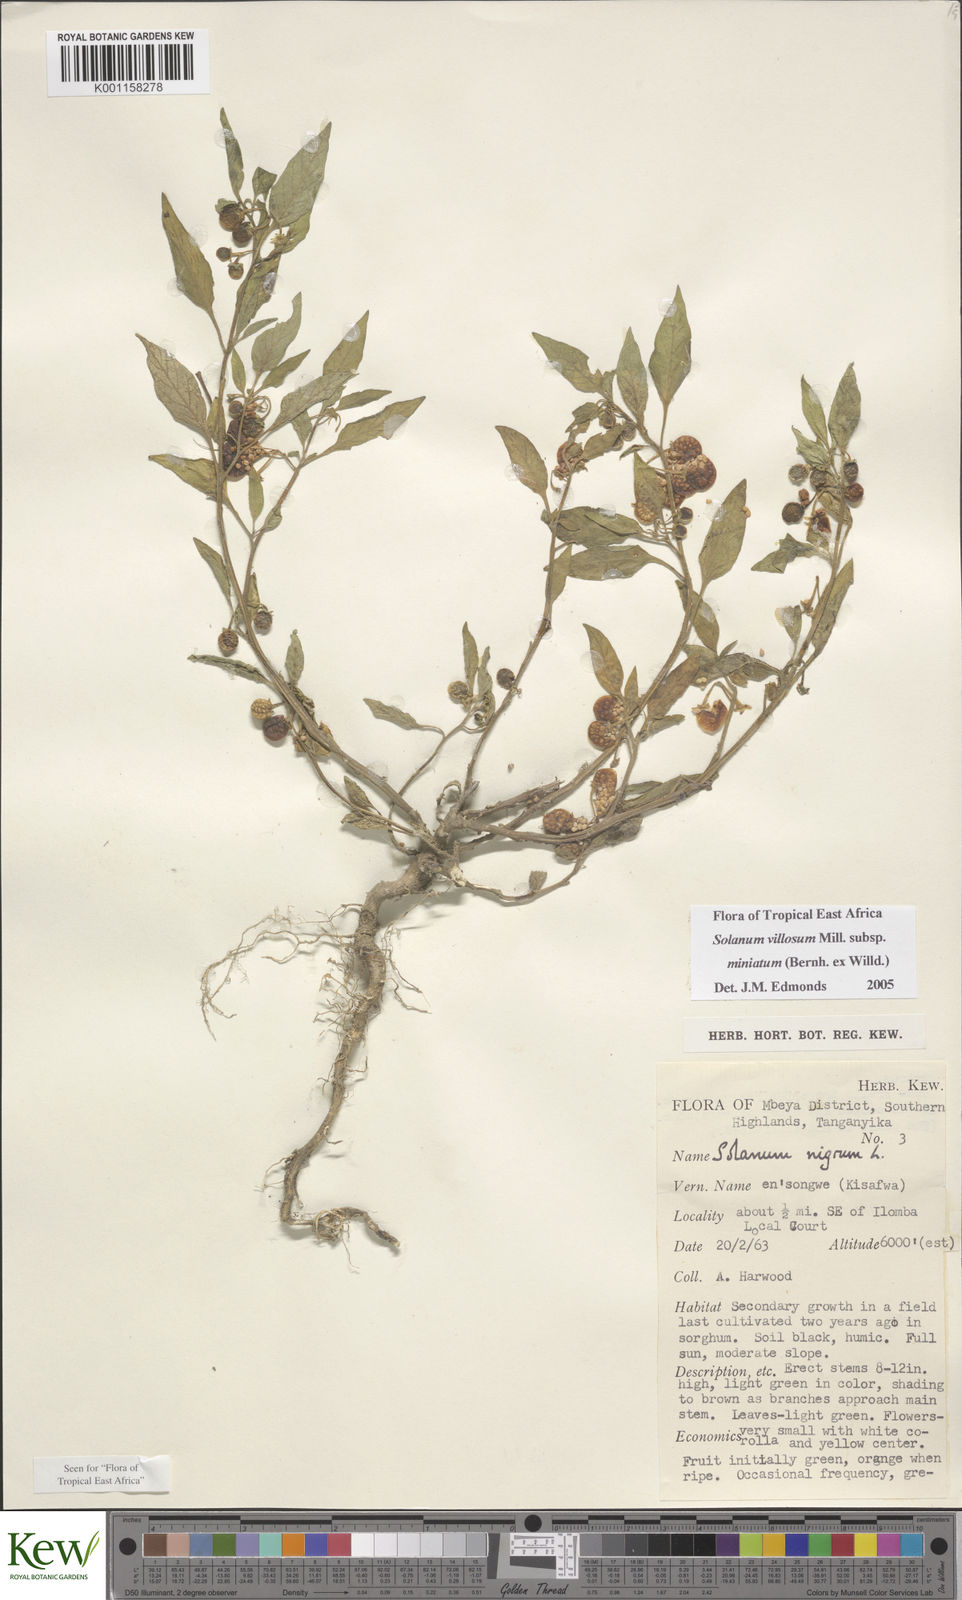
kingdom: Plantae
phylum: Tracheophyta
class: Magnoliopsida
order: Solanales
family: Solanaceae
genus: Solanum
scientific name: Solanum villosum
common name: Red nightshade
